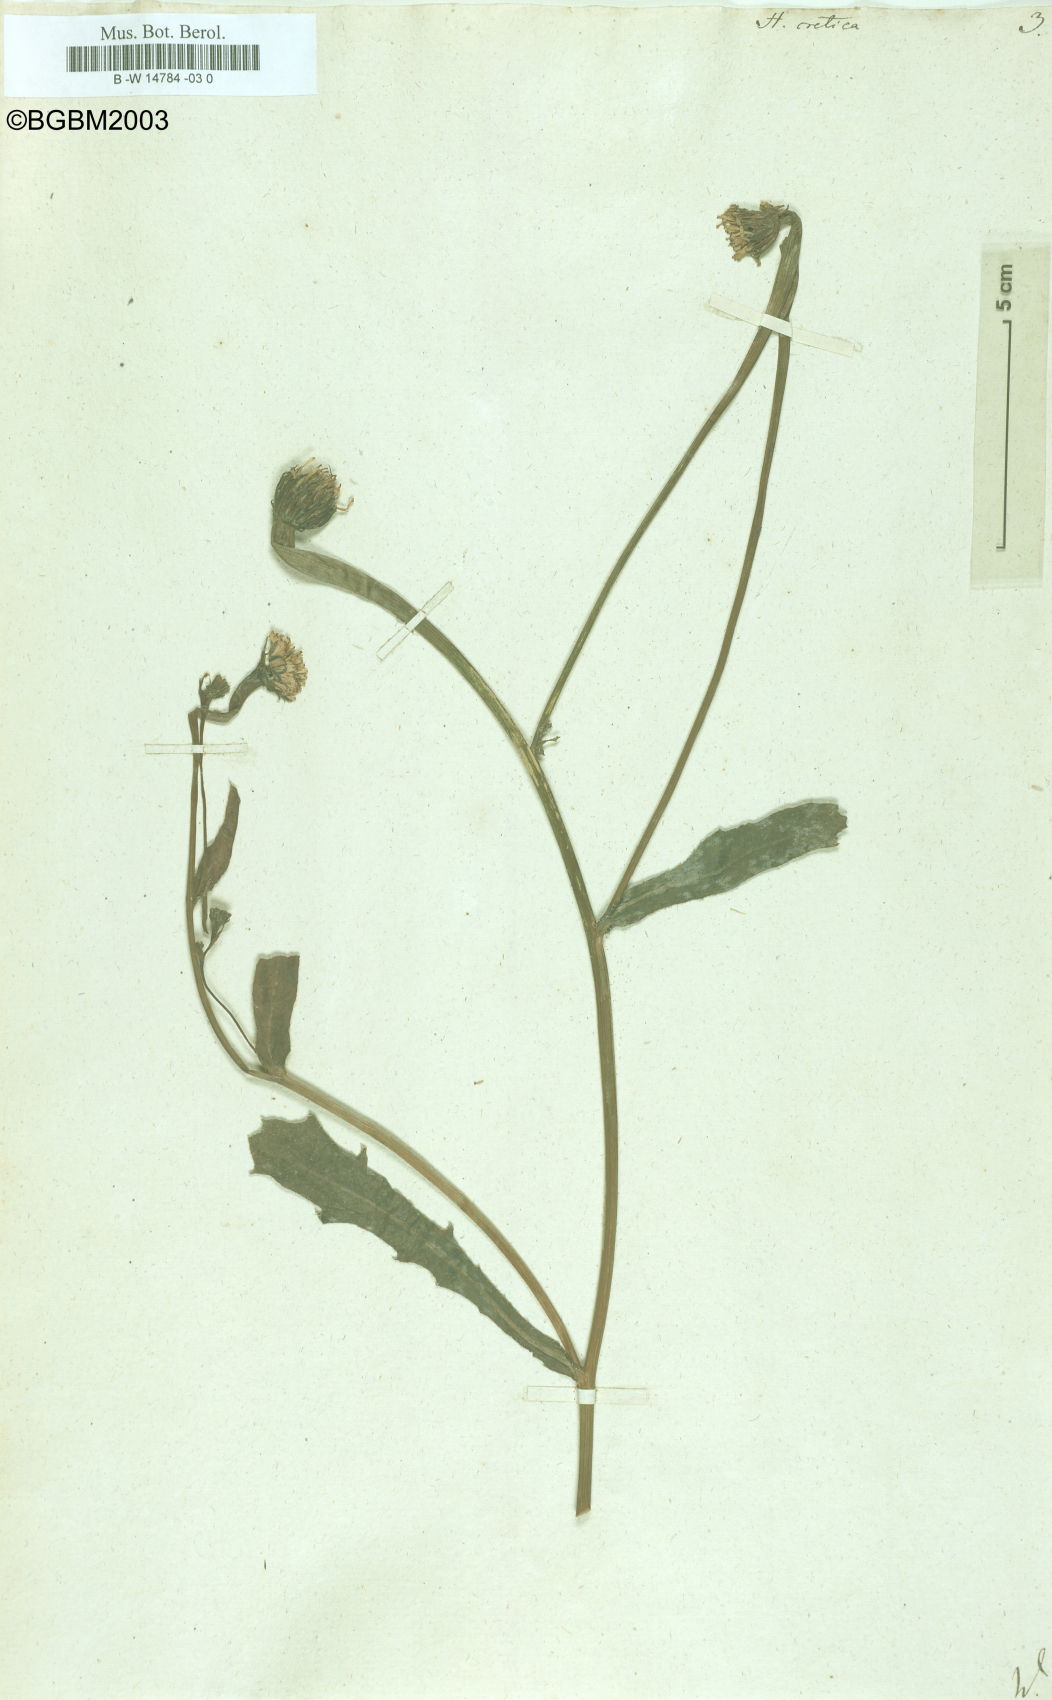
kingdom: Plantae
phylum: Tracheophyta
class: Magnoliopsida
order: Asterales
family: Asteraceae
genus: Hedypnois
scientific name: Hedypnois cretica
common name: Scaly hawkbit
